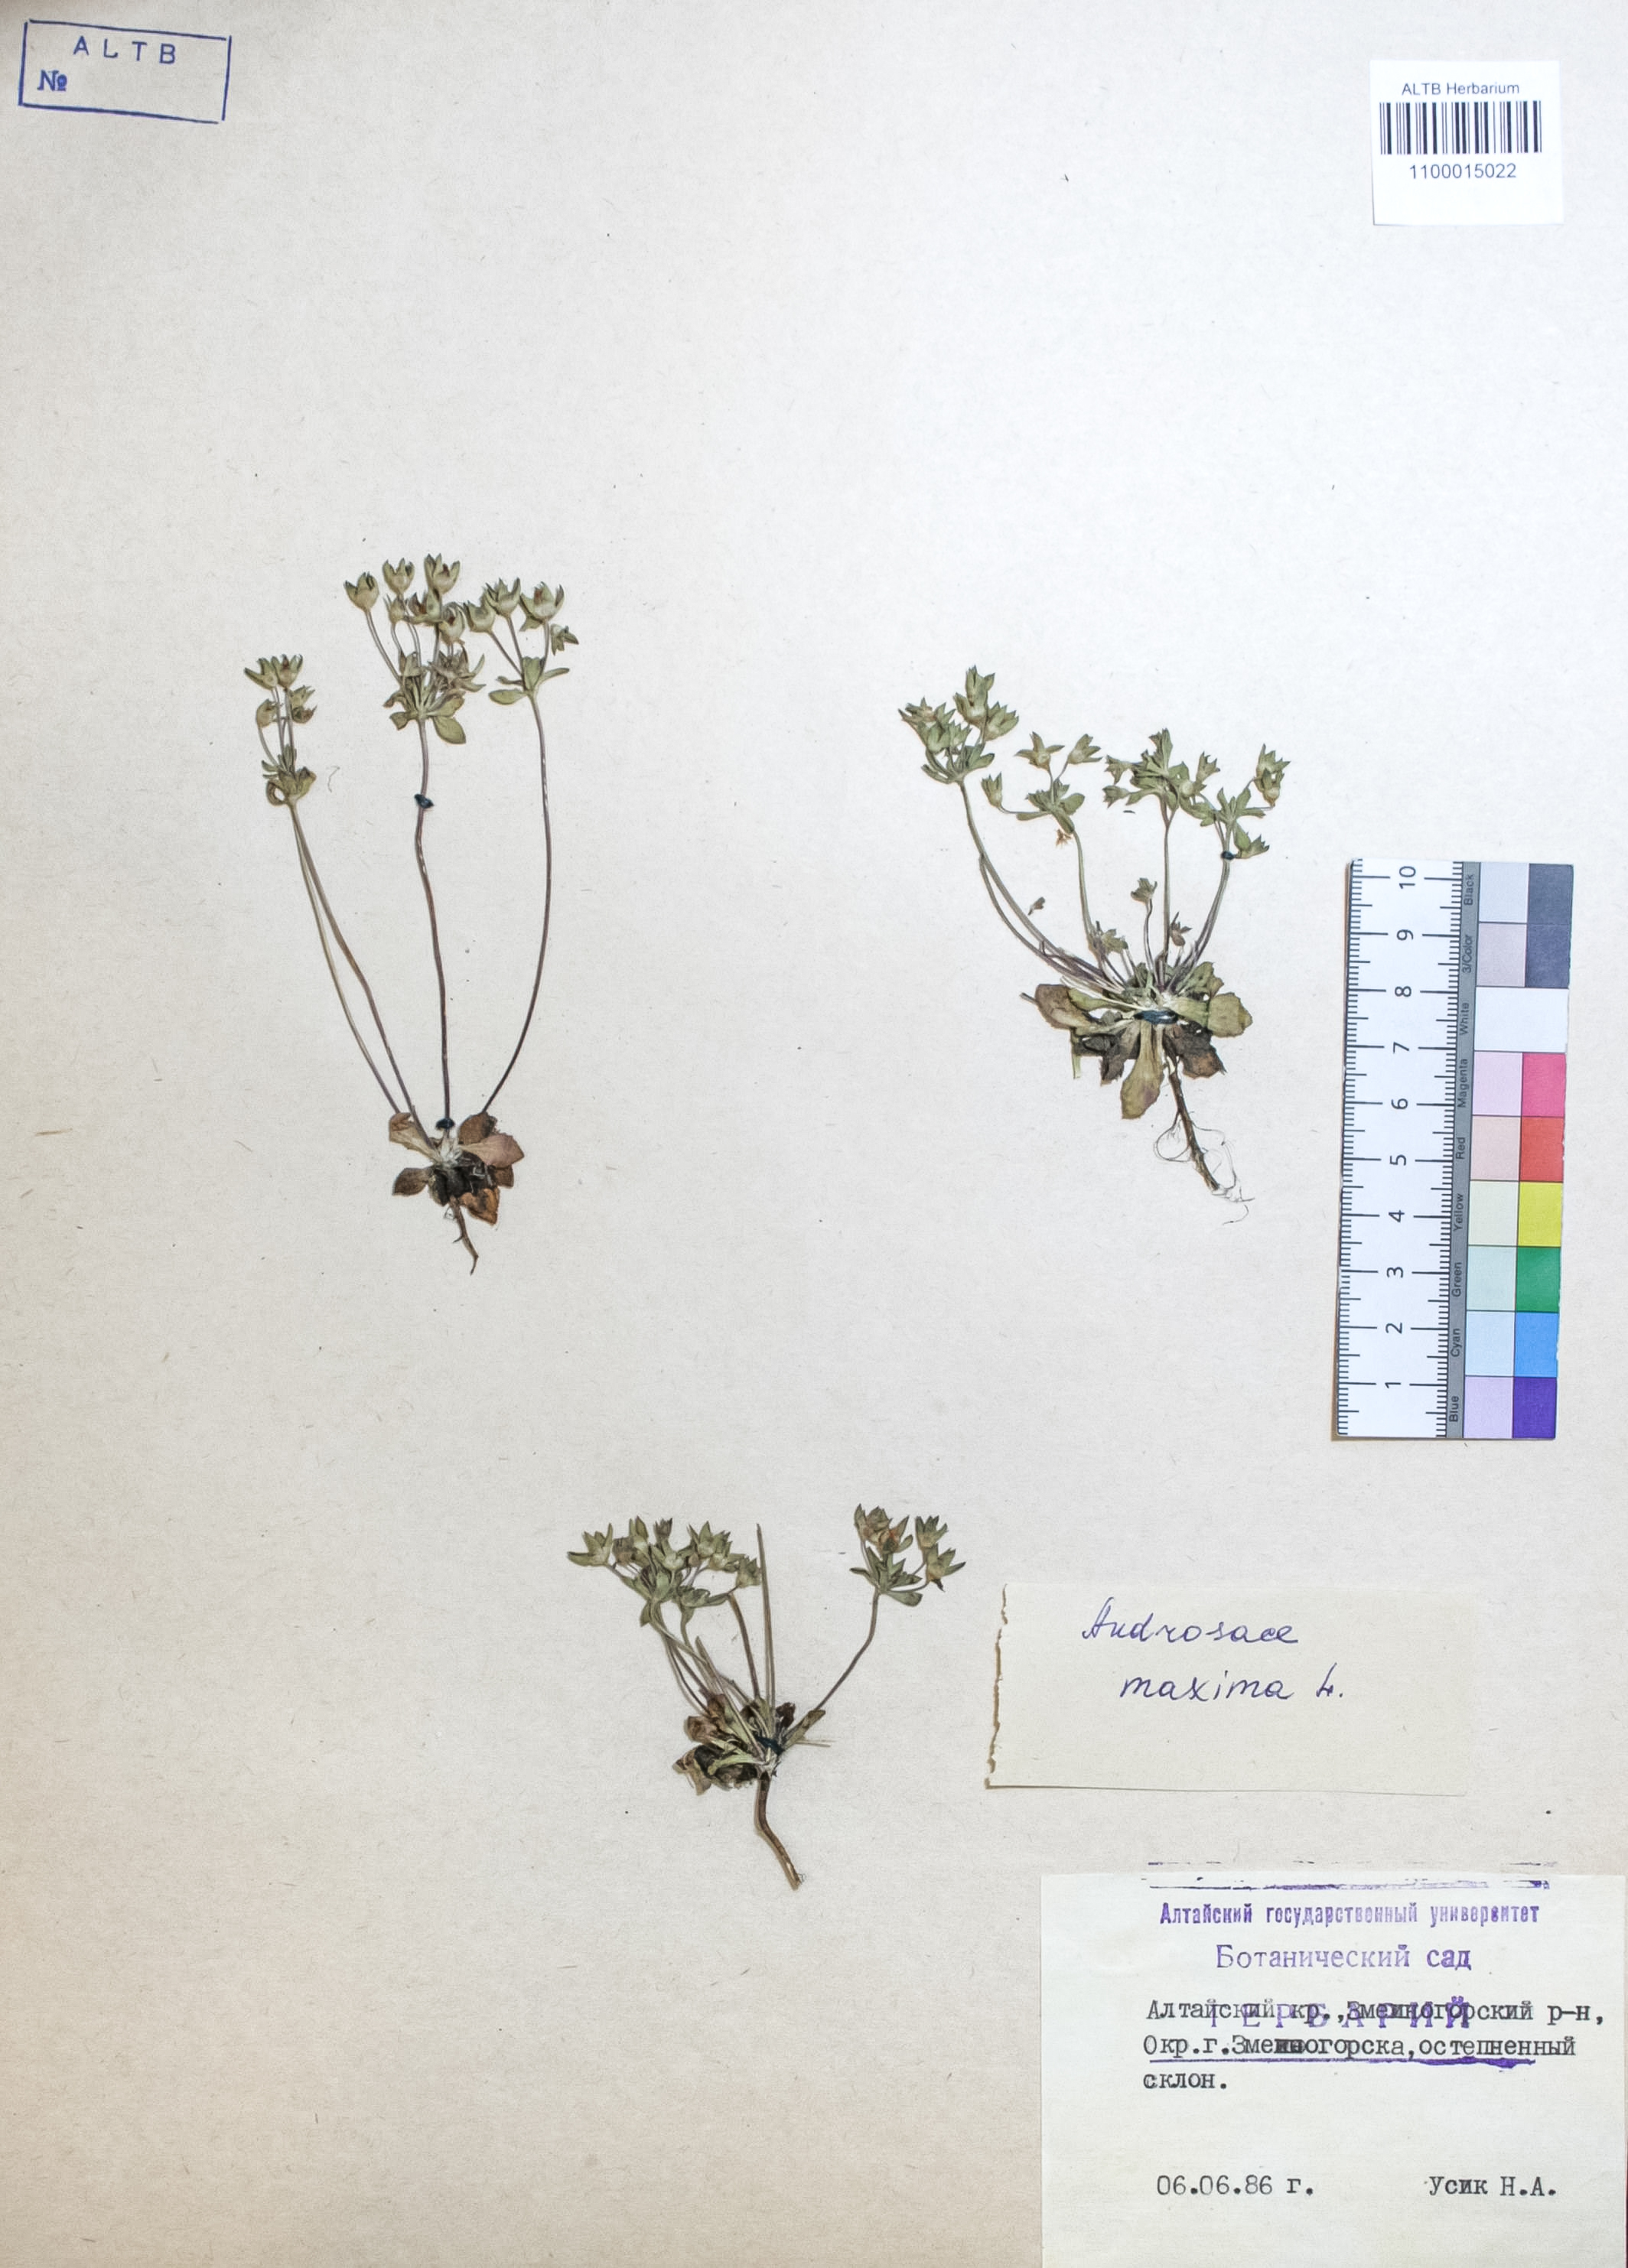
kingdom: Plantae
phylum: Tracheophyta
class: Magnoliopsida
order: Ericales
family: Primulaceae
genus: Androsace
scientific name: Androsace maxima
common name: Annual androsace
